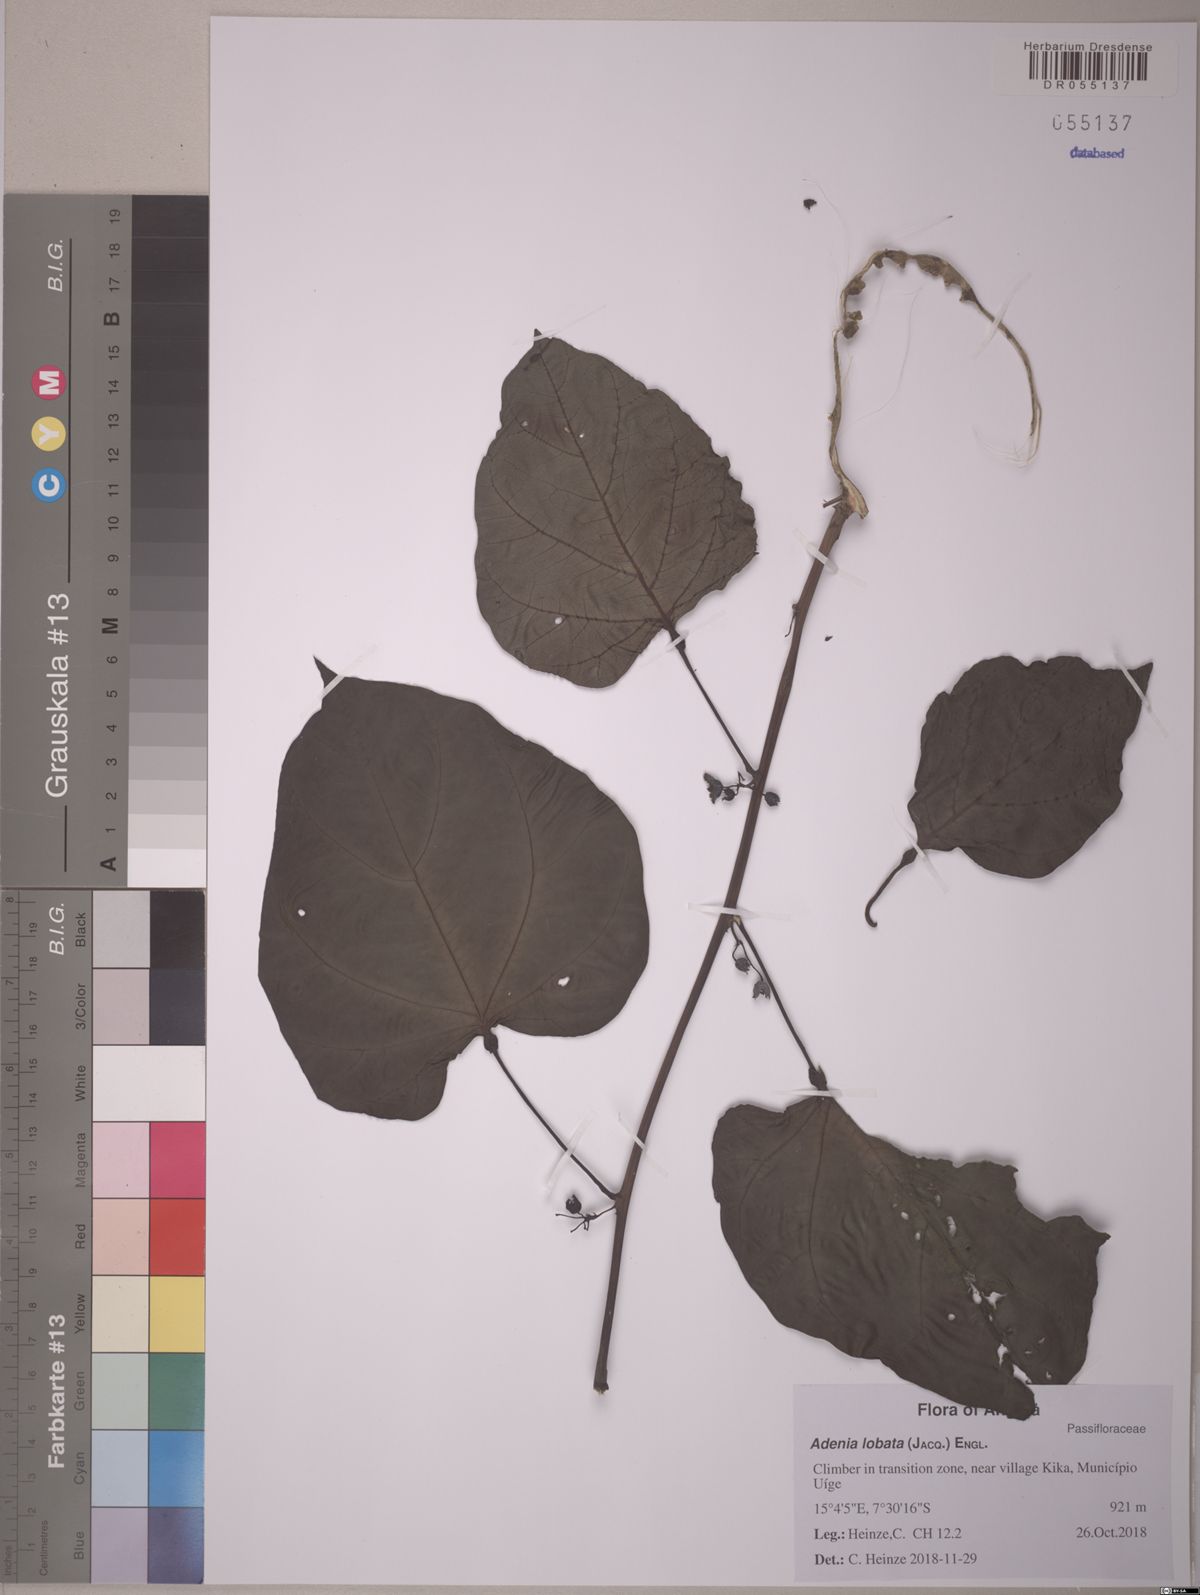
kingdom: Plantae
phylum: Tracheophyta
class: Magnoliopsida
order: Malpighiales
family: Passifloraceae
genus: Adenia
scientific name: Adenia lobata
